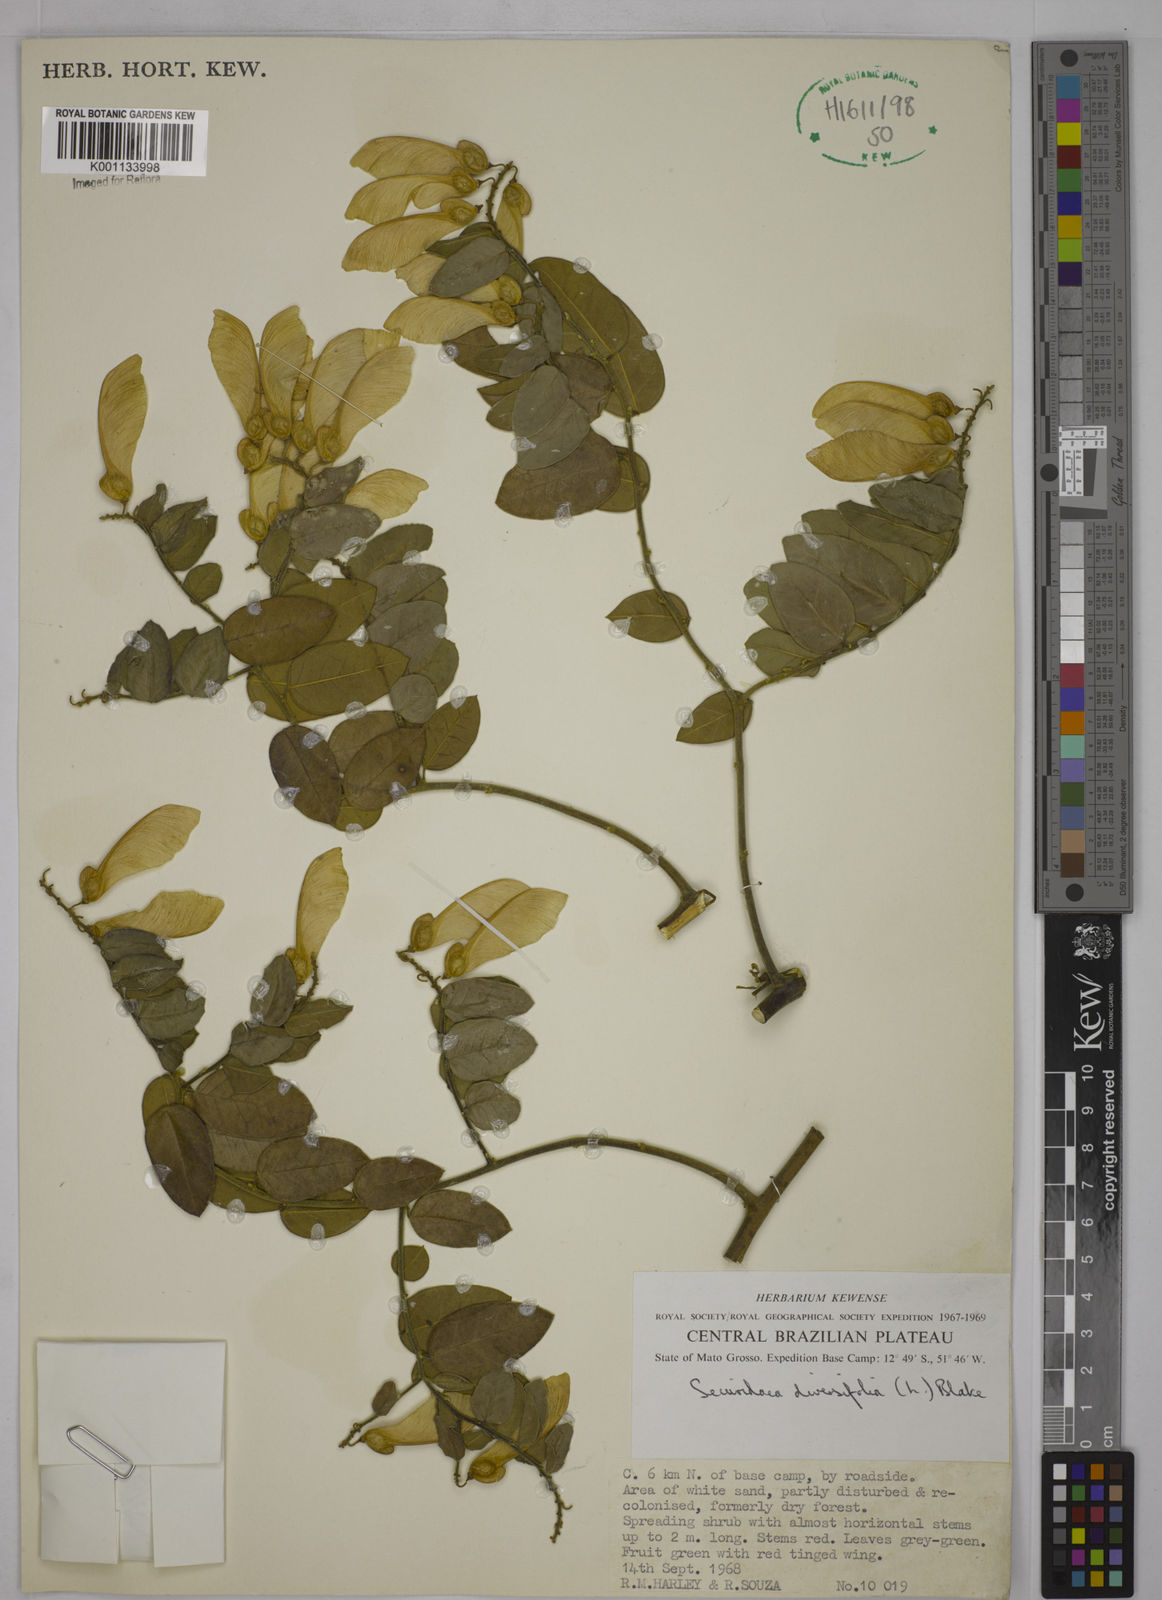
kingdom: Plantae
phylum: Tracheophyta
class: Magnoliopsida
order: Fabales
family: Polygalaceae
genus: Securidaca
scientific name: Securidaca diversifolia
